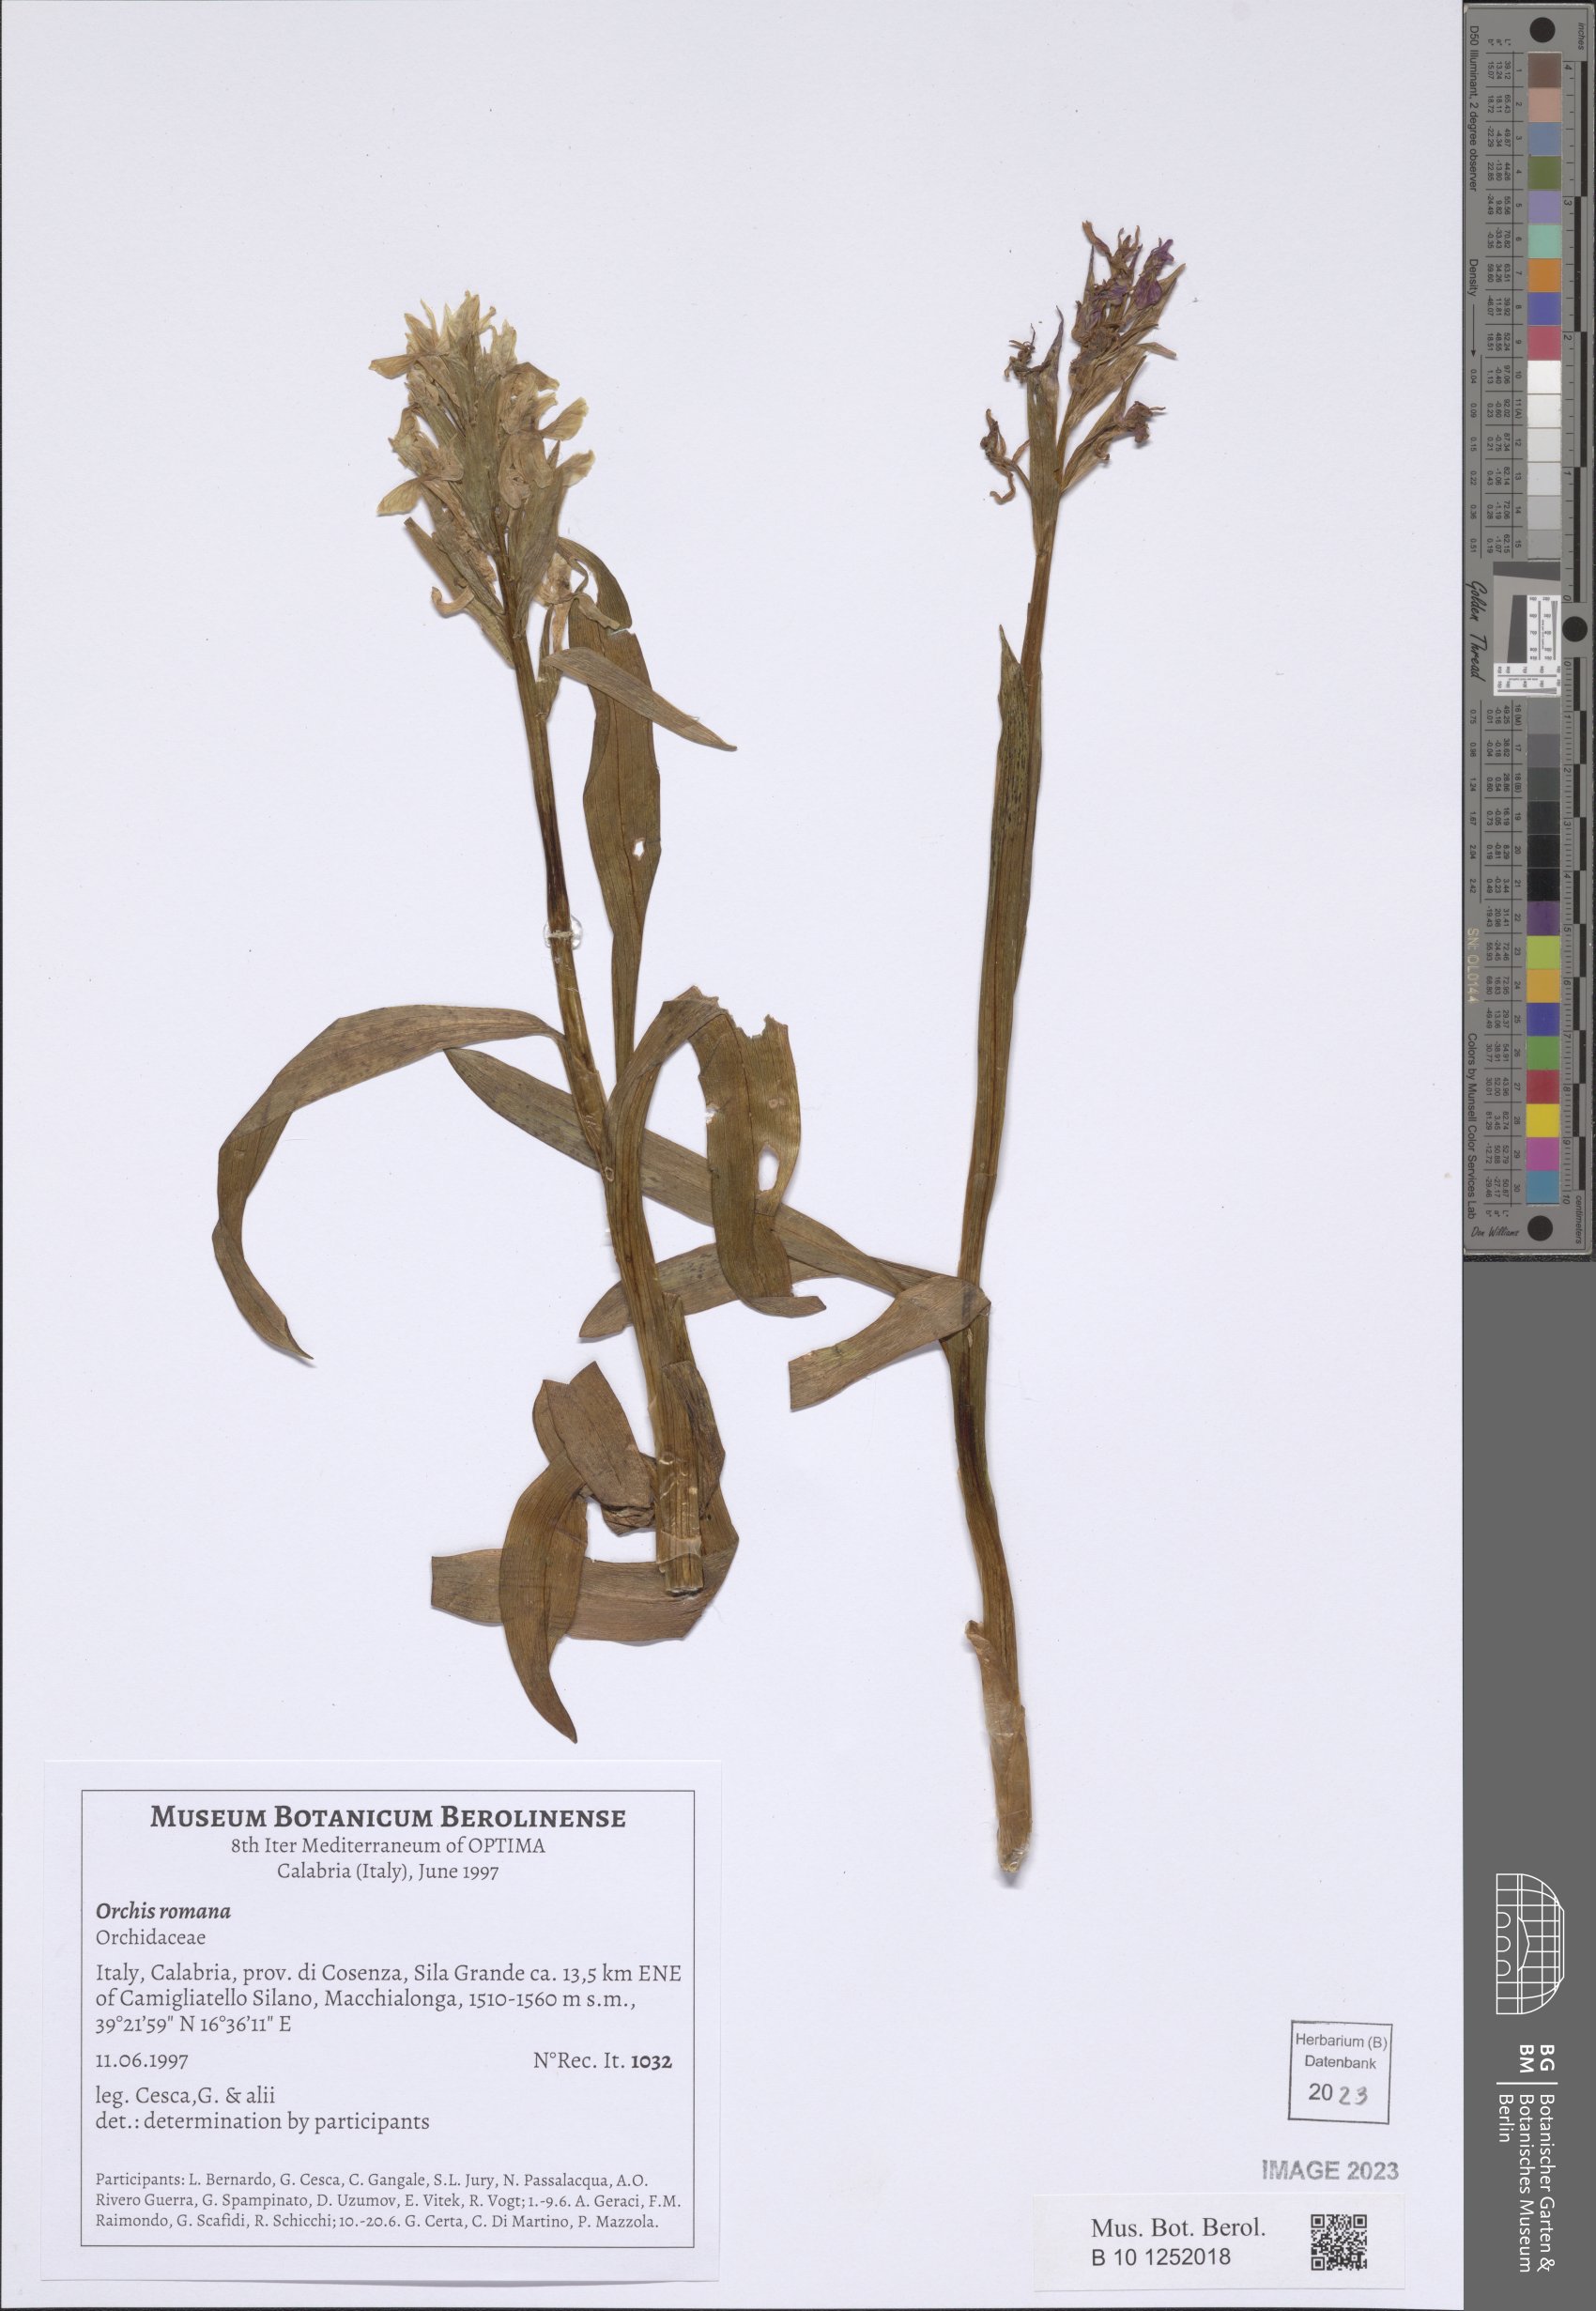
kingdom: Plantae
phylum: Tracheophyta
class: Liliopsida
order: Asparagales
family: Orchidaceae
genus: Dactylorhiza
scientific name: Dactylorhiza romana
